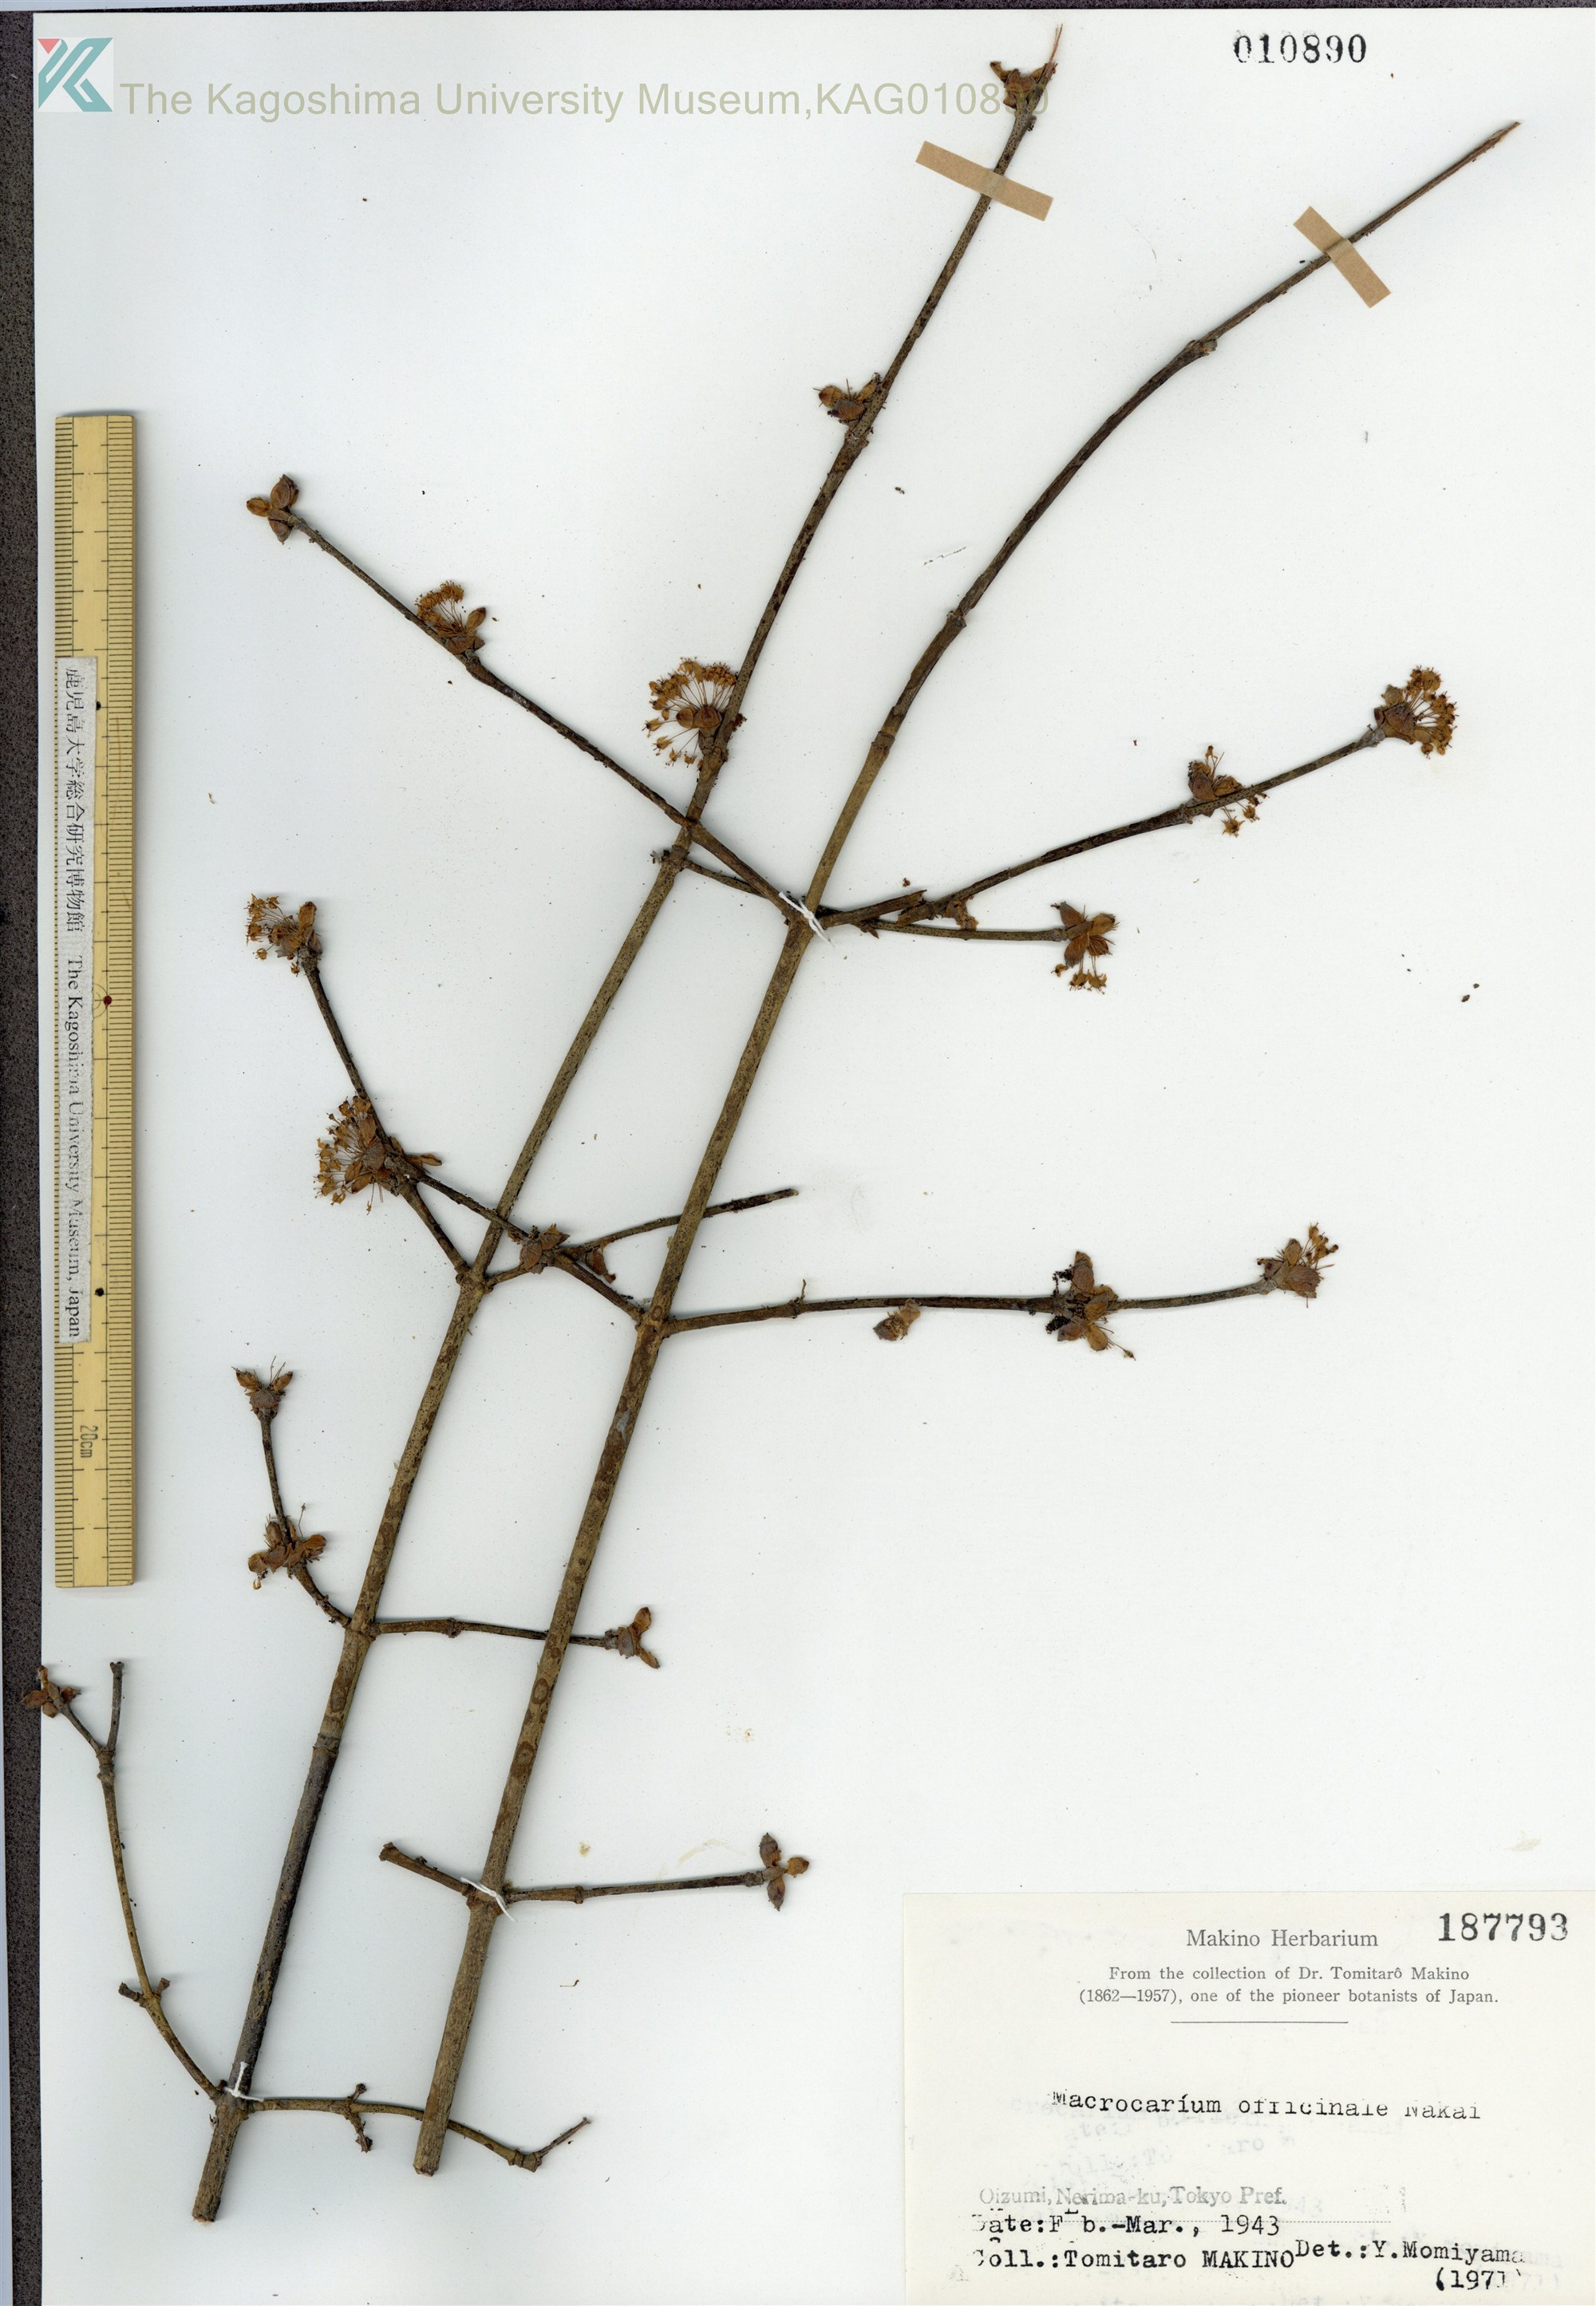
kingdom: Plantae
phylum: Tracheophyta
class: Magnoliopsida
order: Cornales
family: Cornaceae
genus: Cornus
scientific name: Cornus officinalis
